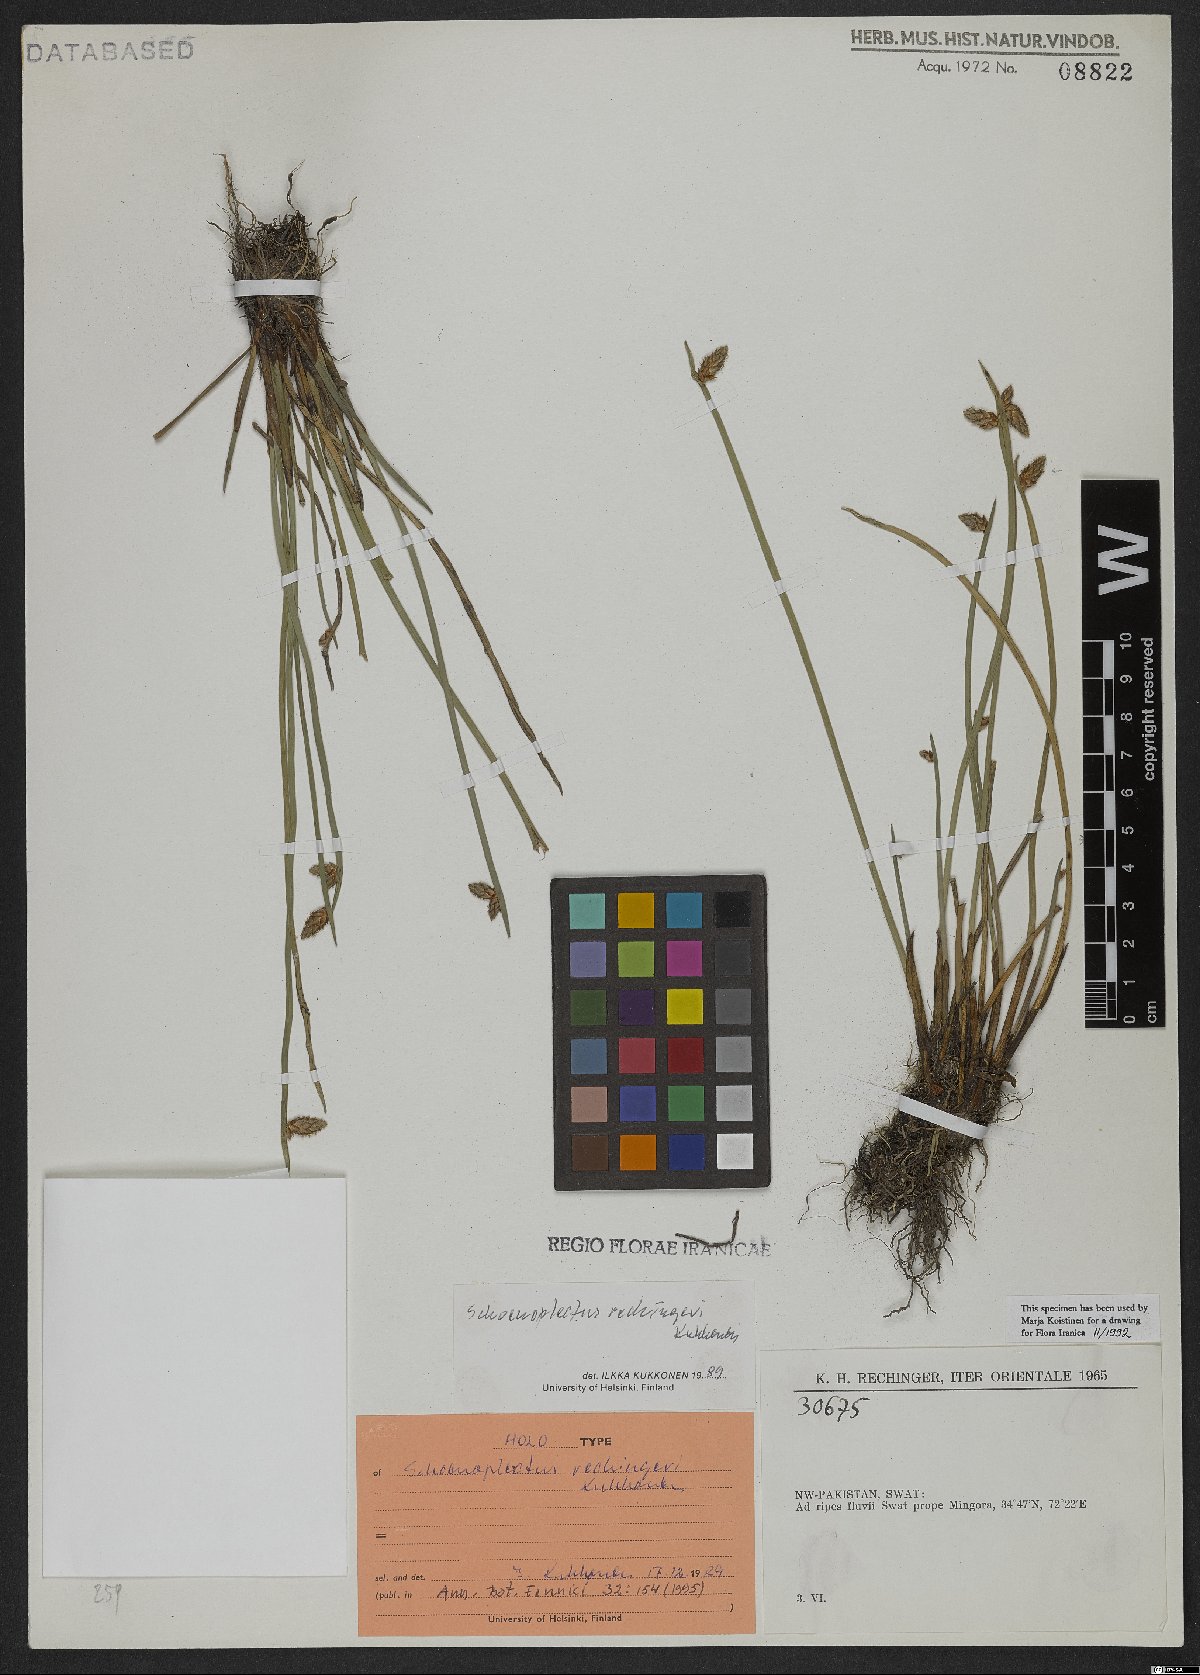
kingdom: Plantae
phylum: Tracheophyta
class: Liliopsida
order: Poales
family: Cyperaceae
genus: Schoenoplectiella
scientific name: Schoenoplectiella rechingeri
